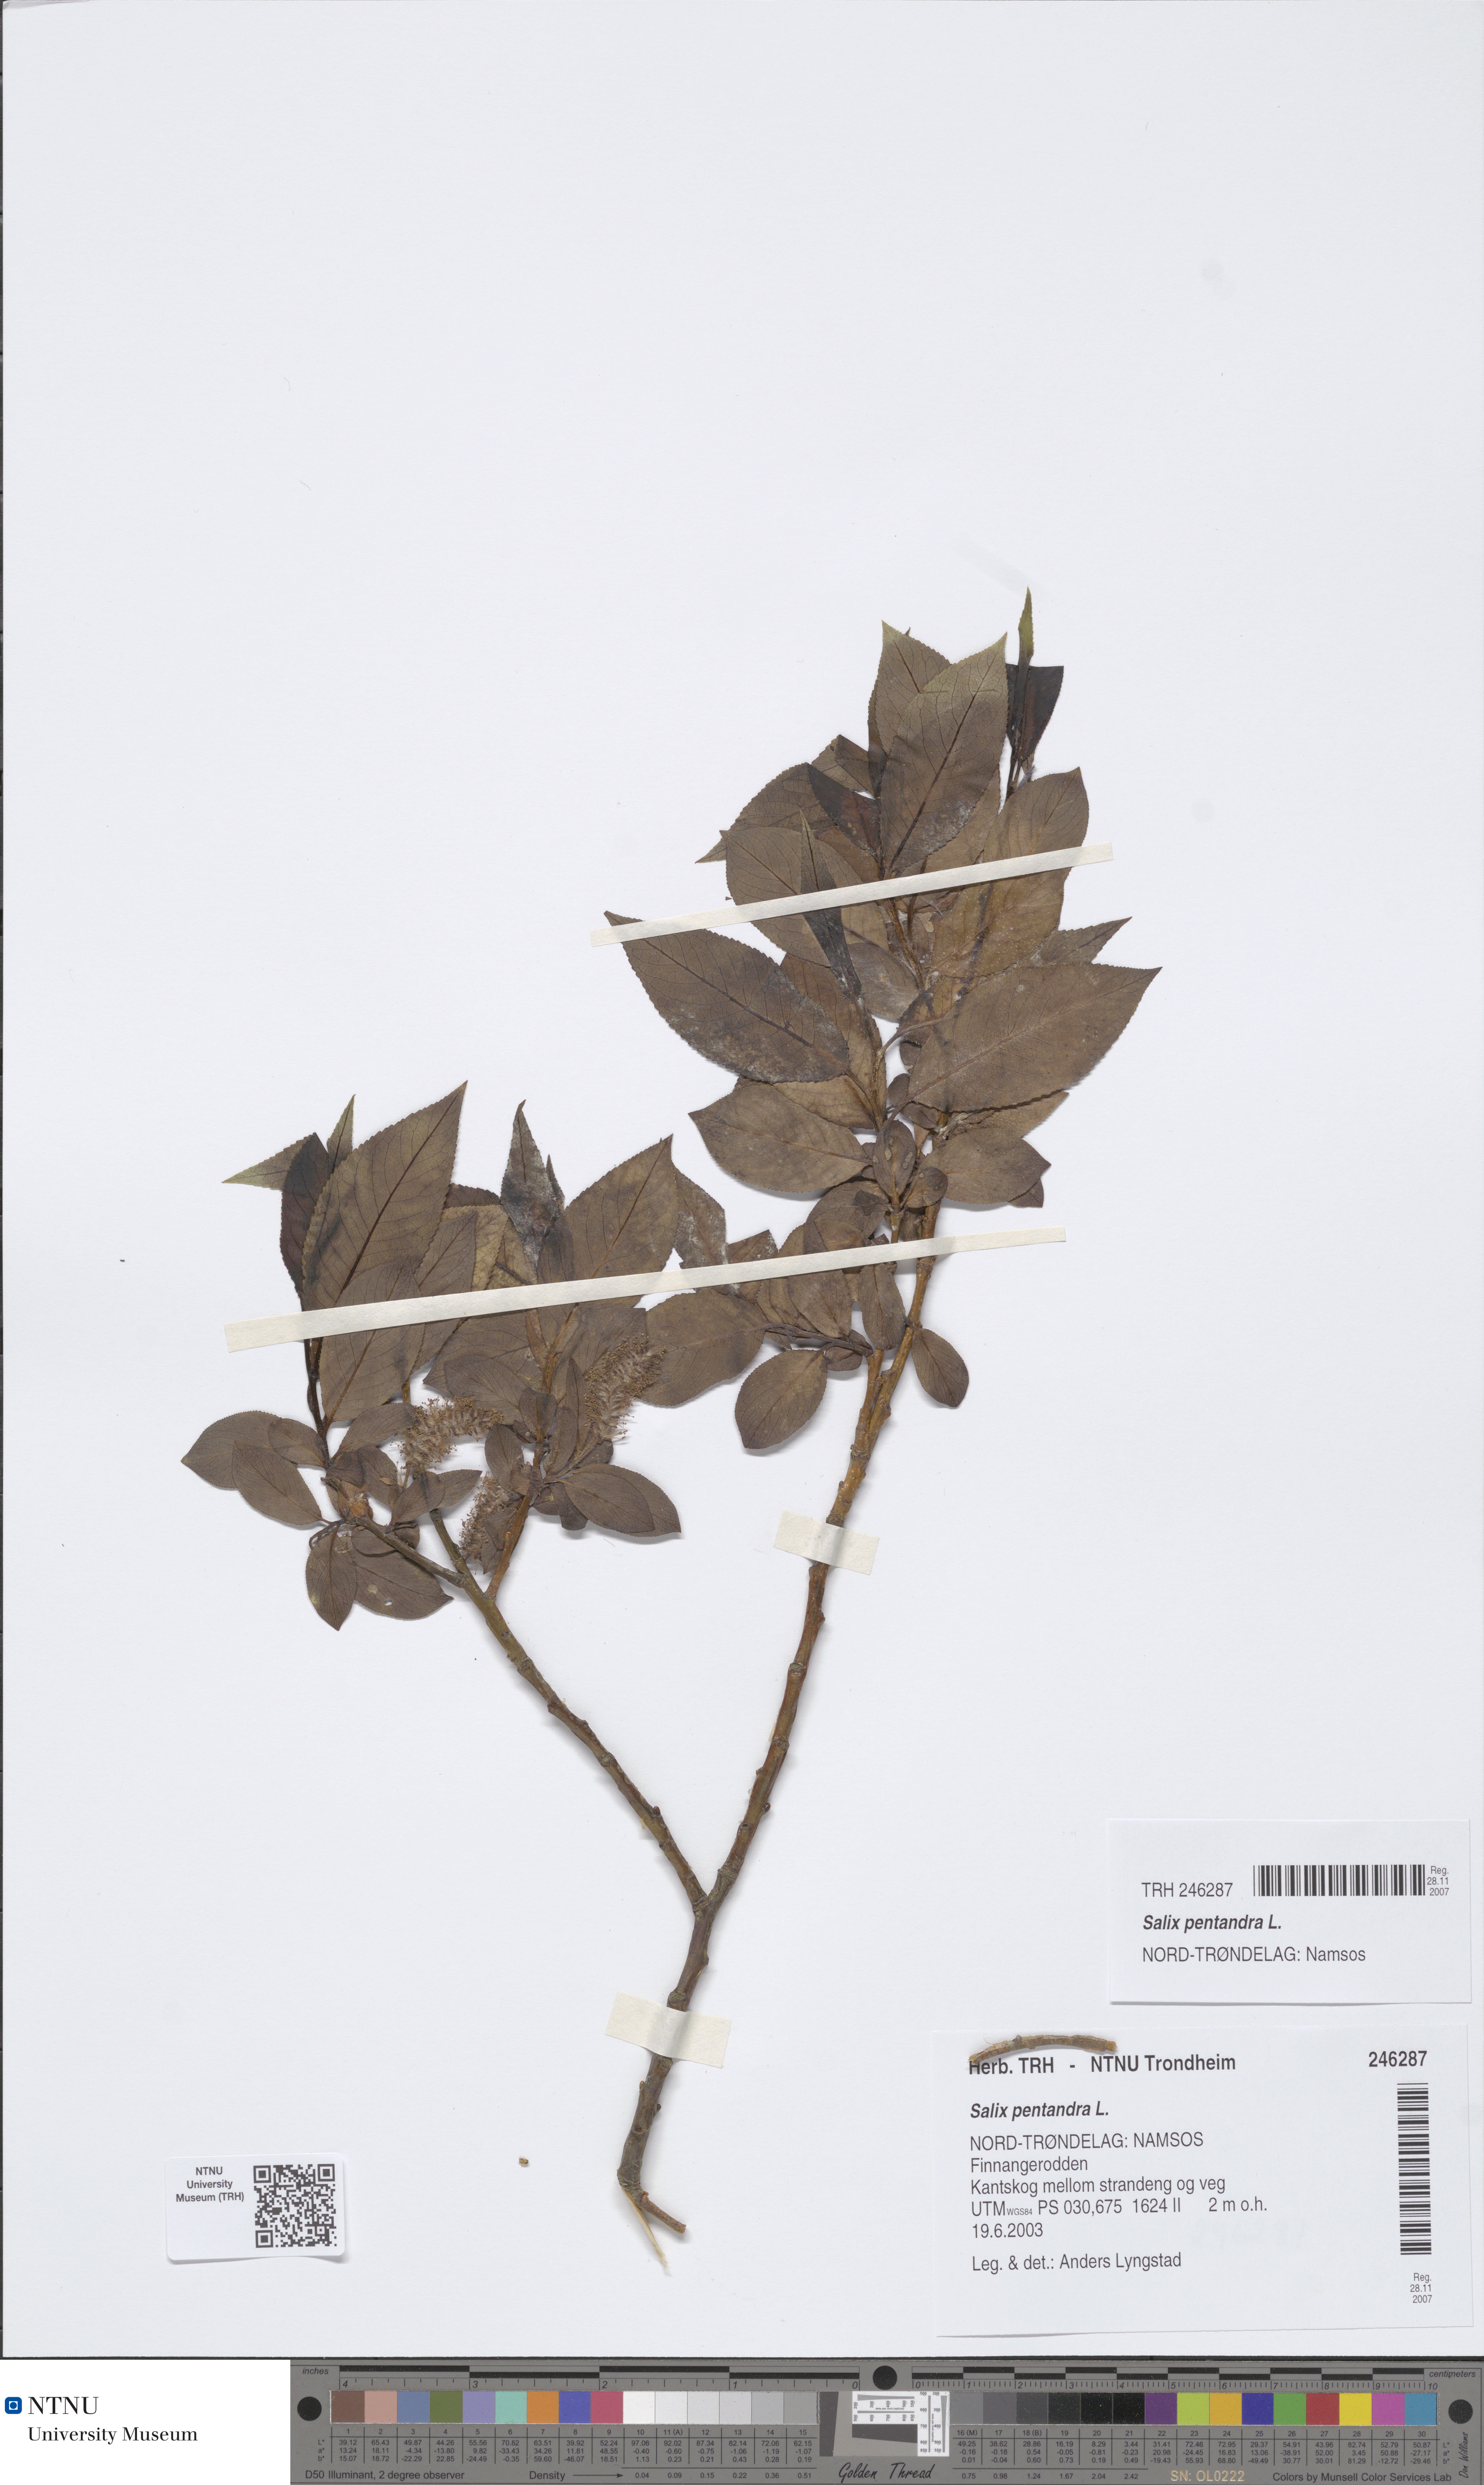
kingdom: Plantae
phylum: Tracheophyta
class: Magnoliopsida
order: Malpighiales
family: Salicaceae
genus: Salix
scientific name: Salix pentandra
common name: Bay willow
